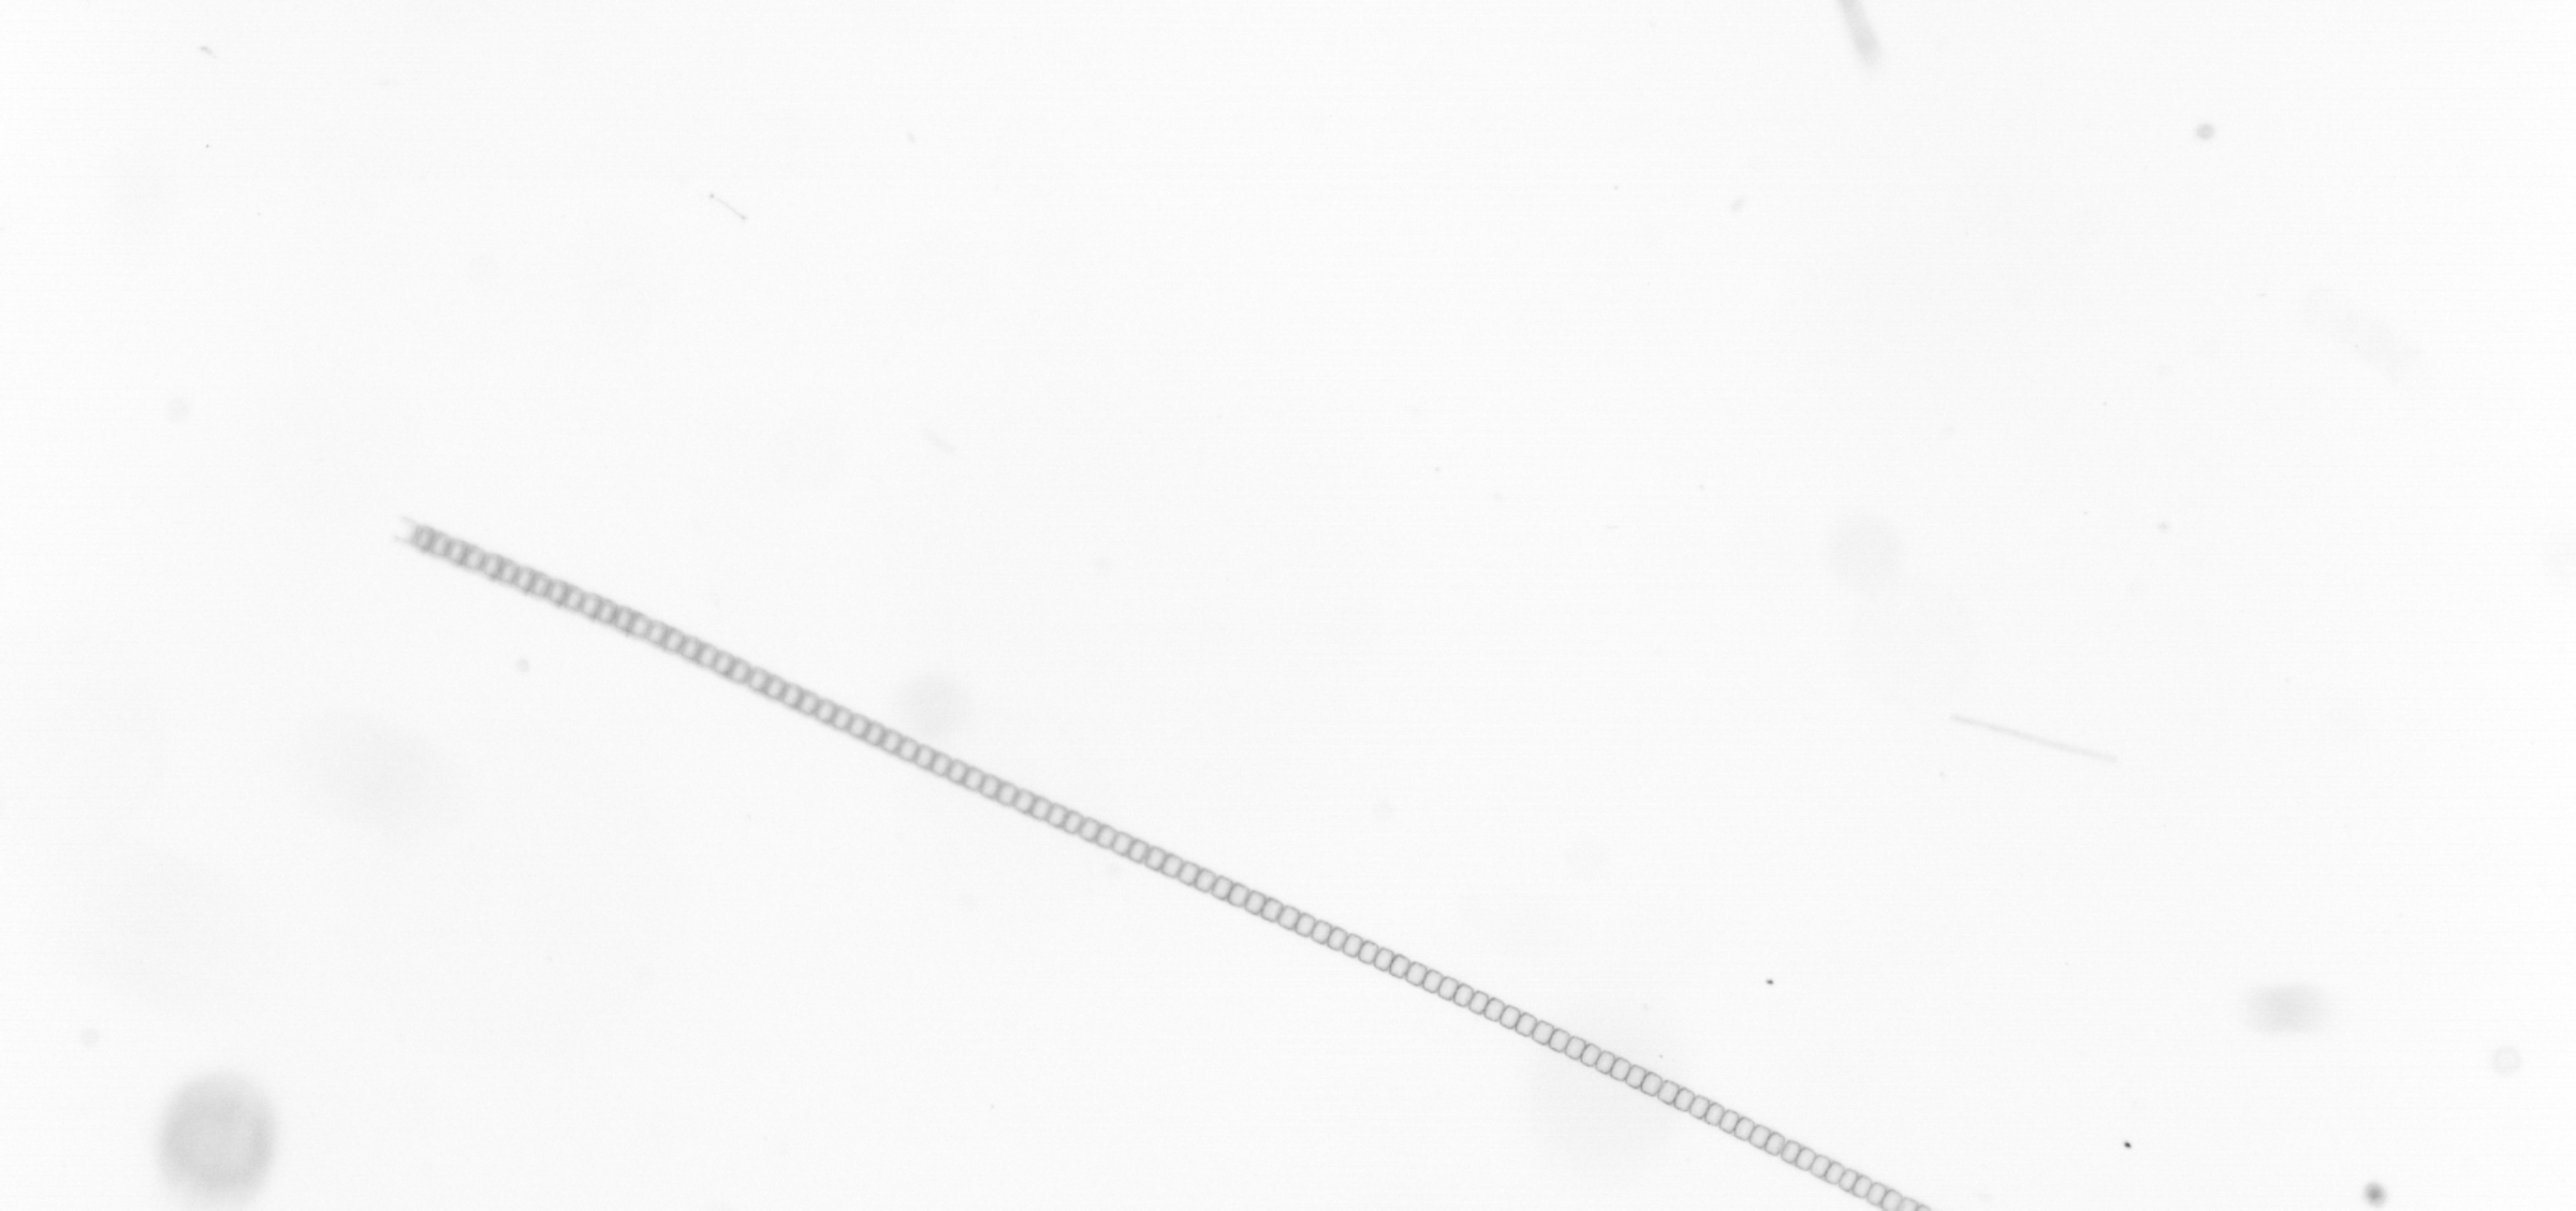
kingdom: Chromista
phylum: Ochrophyta
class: Bacillariophyceae
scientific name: Bacillariophyceae
